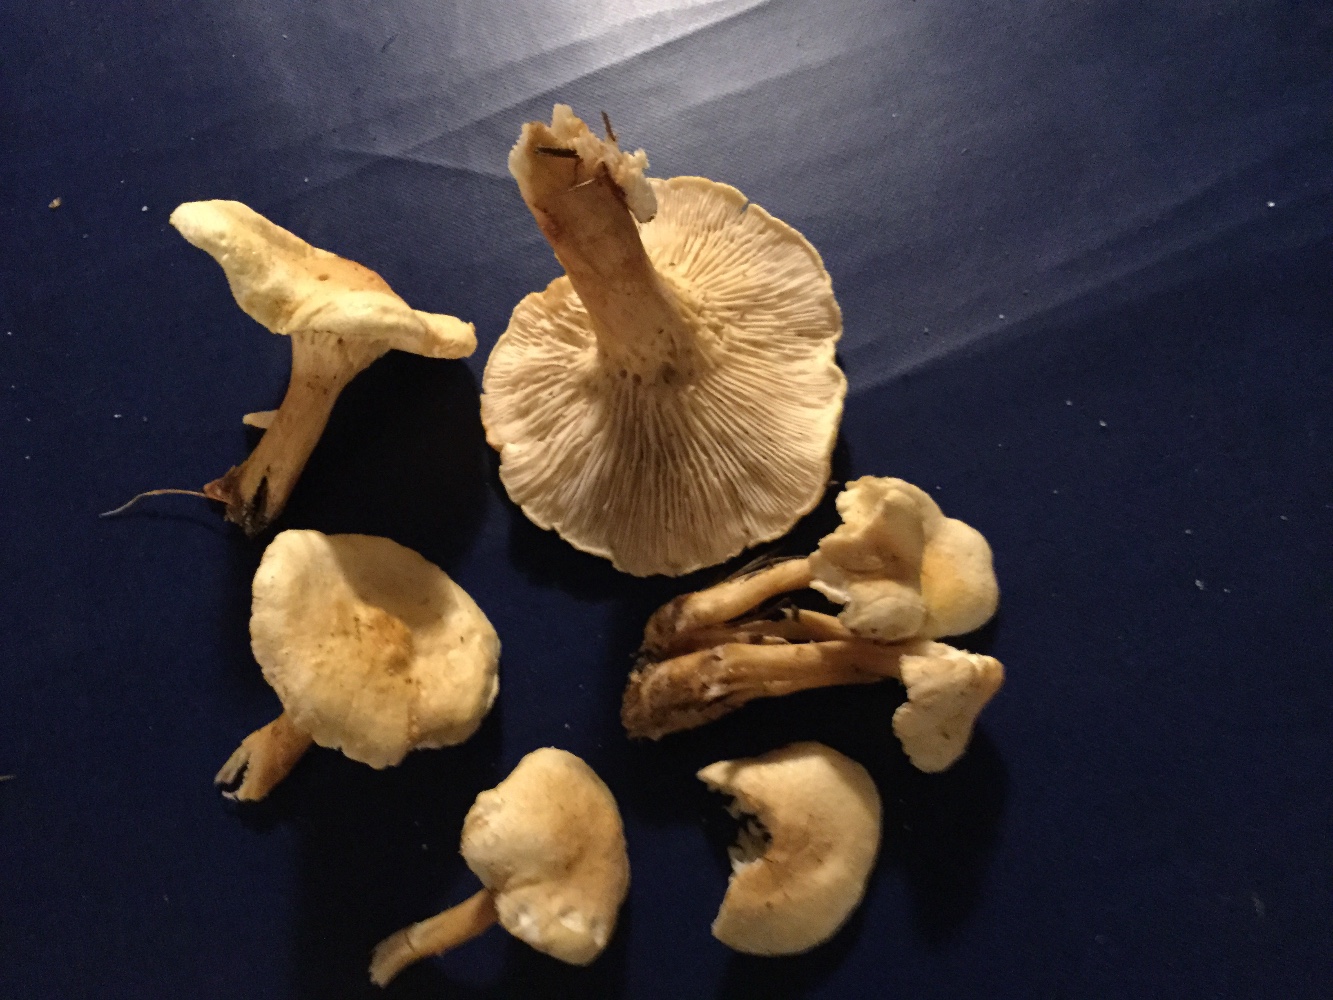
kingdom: Fungi
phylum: Basidiomycota
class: Agaricomycetes
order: Boletales
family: Hygrophoropsidaceae
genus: Hygrophoropsis
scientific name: Hygrophoropsis pallida
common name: bleg orangekantarel
